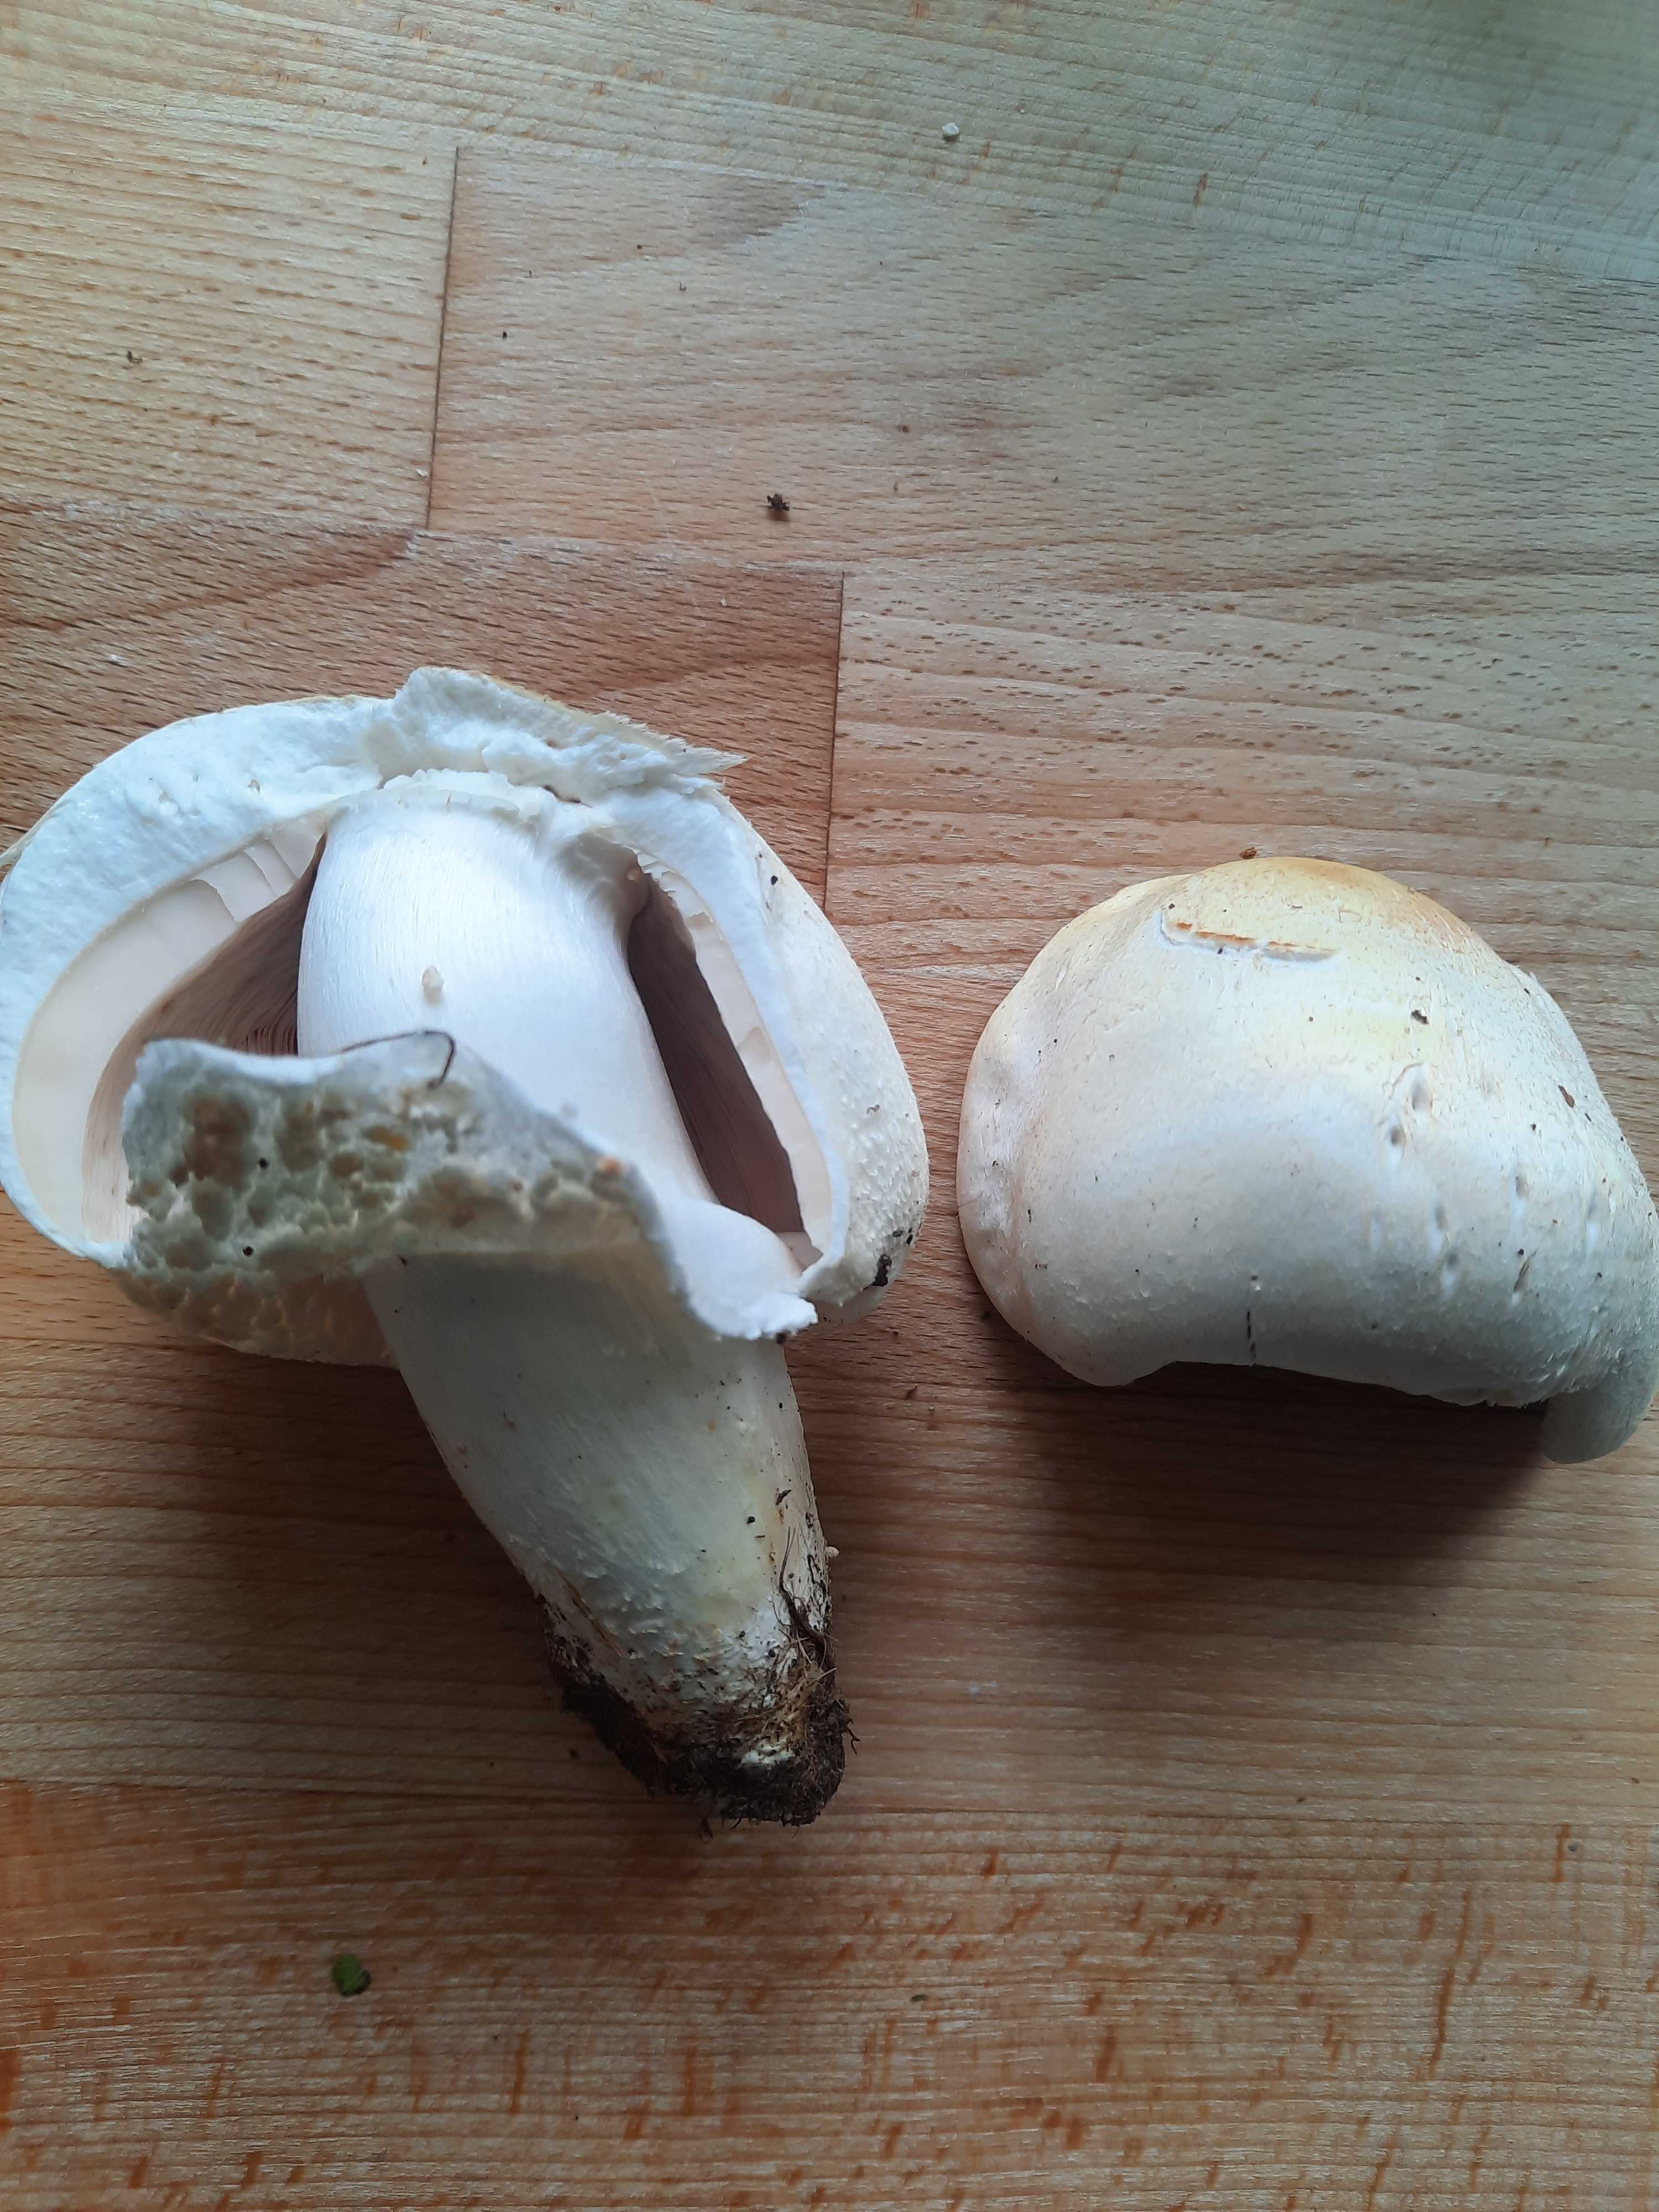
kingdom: Fungi
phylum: Basidiomycota
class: Agaricomycetes
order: Agaricales
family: Agaricaceae
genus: Agaricus
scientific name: Agaricus
